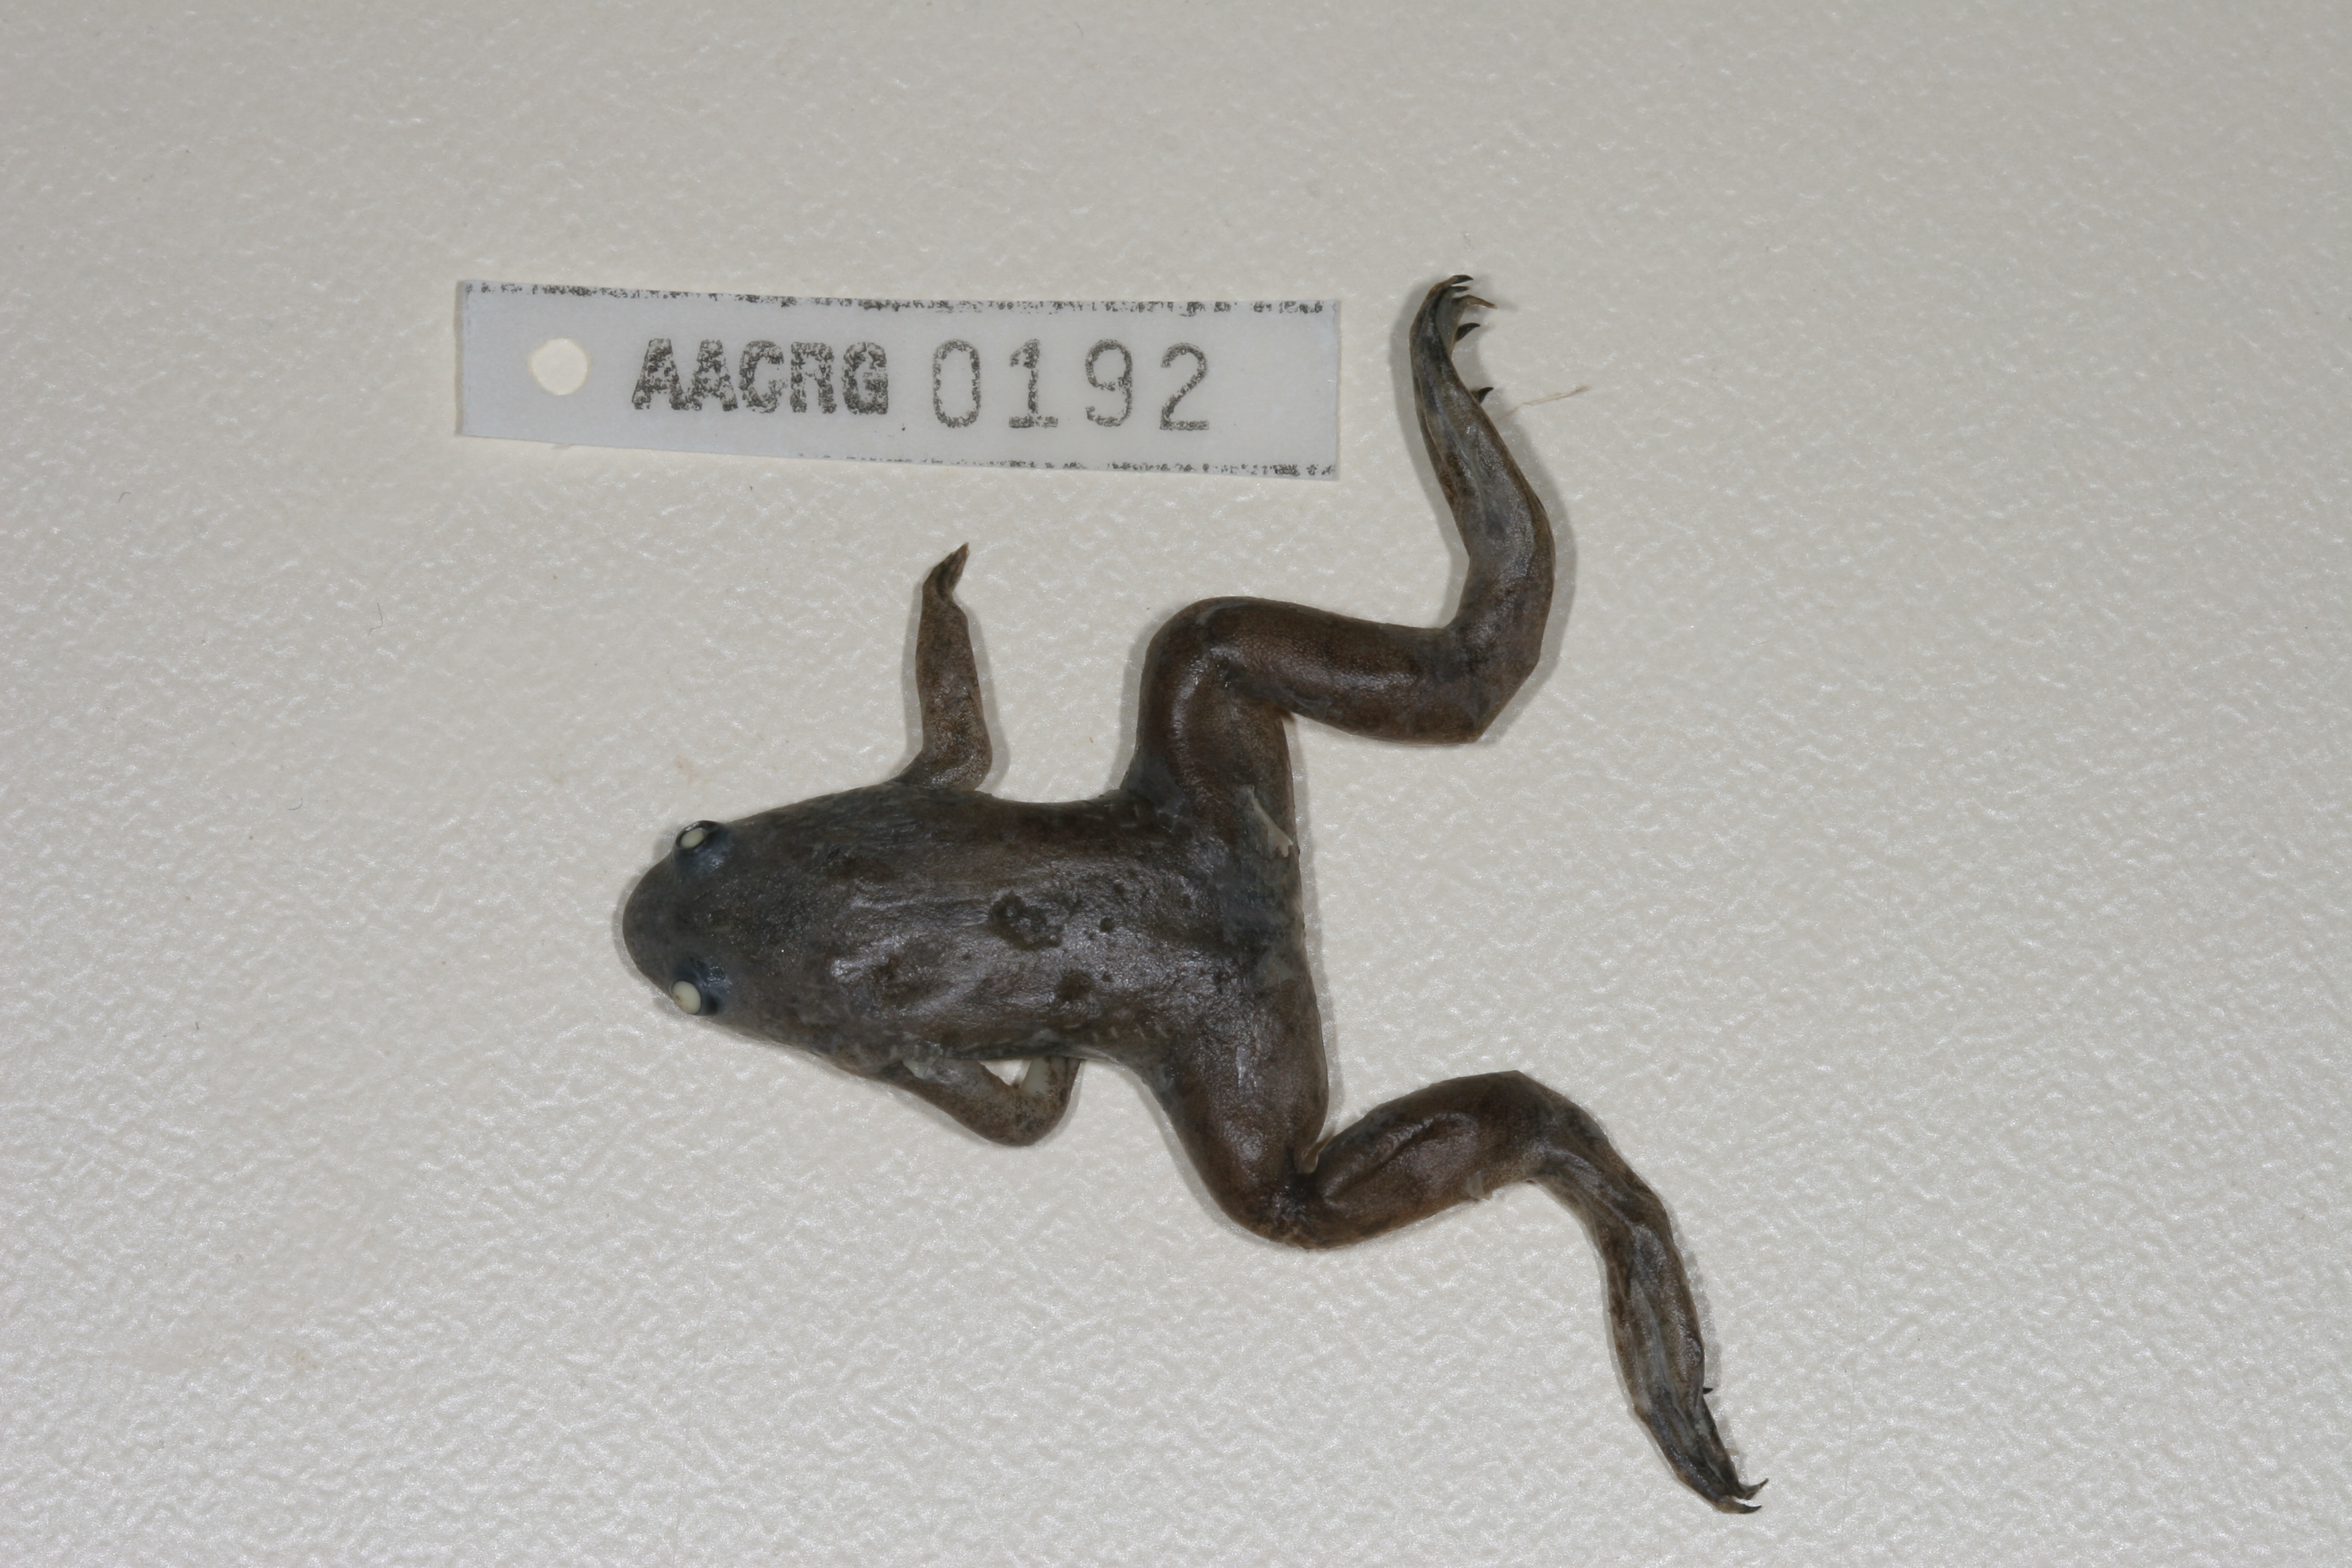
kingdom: Animalia
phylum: Chordata
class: Amphibia
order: Anura
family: Pipidae
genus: Xenopus
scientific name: Xenopus laevis
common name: African clawed frog
